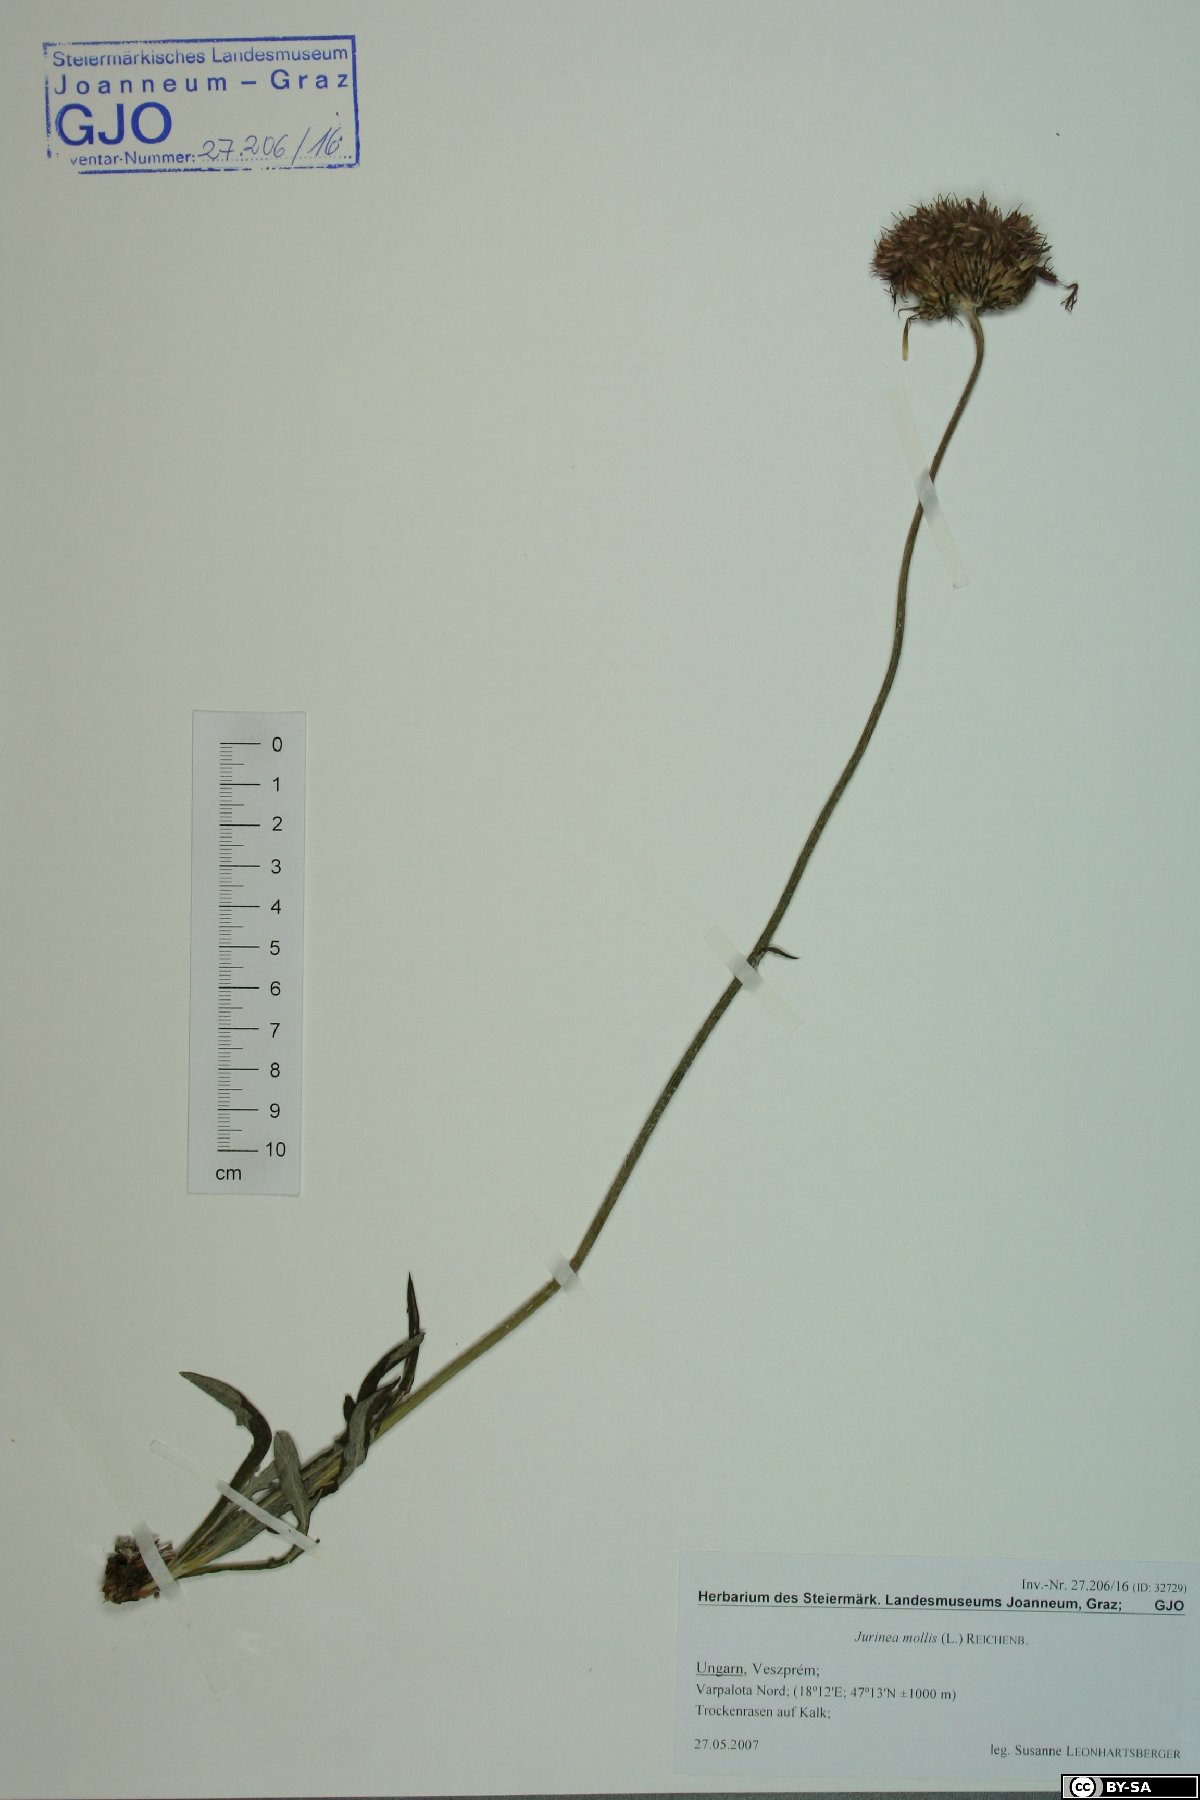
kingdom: Plantae
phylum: Tracheophyta
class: Magnoliopsida
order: Asterales
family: Asteraceae
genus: Jurinea
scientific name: Jurinea mollis
